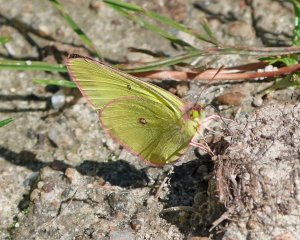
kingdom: Animalia
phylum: Arthropoda
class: Insecta
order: Lepidoptera
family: Pieridae
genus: Colias
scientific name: Colias interior
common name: Pink-edged Sulphur
